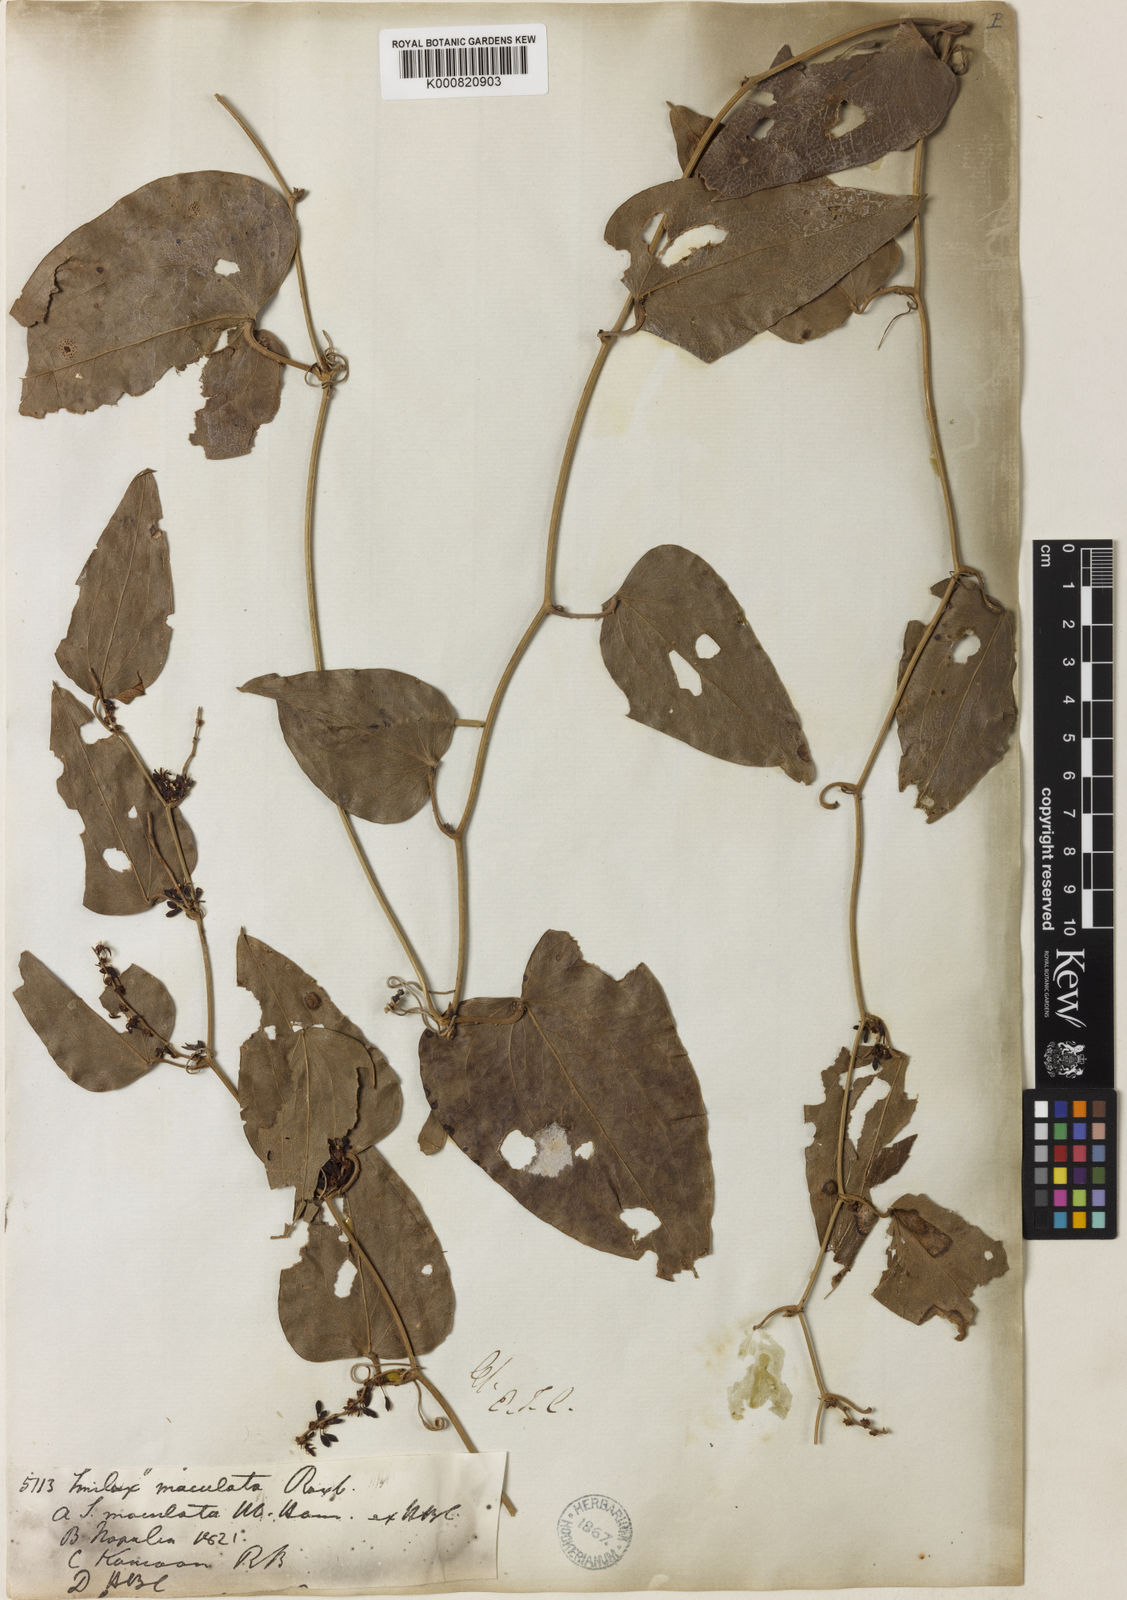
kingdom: Plantae
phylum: Tracheophyta
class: Liliopsida
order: Liliales
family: Smilacaceae
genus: Smilax
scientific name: Smilax aspera
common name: Common smilax
